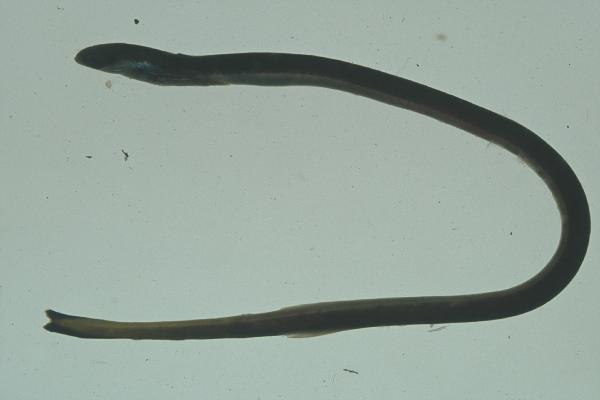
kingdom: Animalia
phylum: Chordata
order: Anguilliformes
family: Moringuidae
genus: Moringua
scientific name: Moringua microchir
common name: Spaghetti eel
